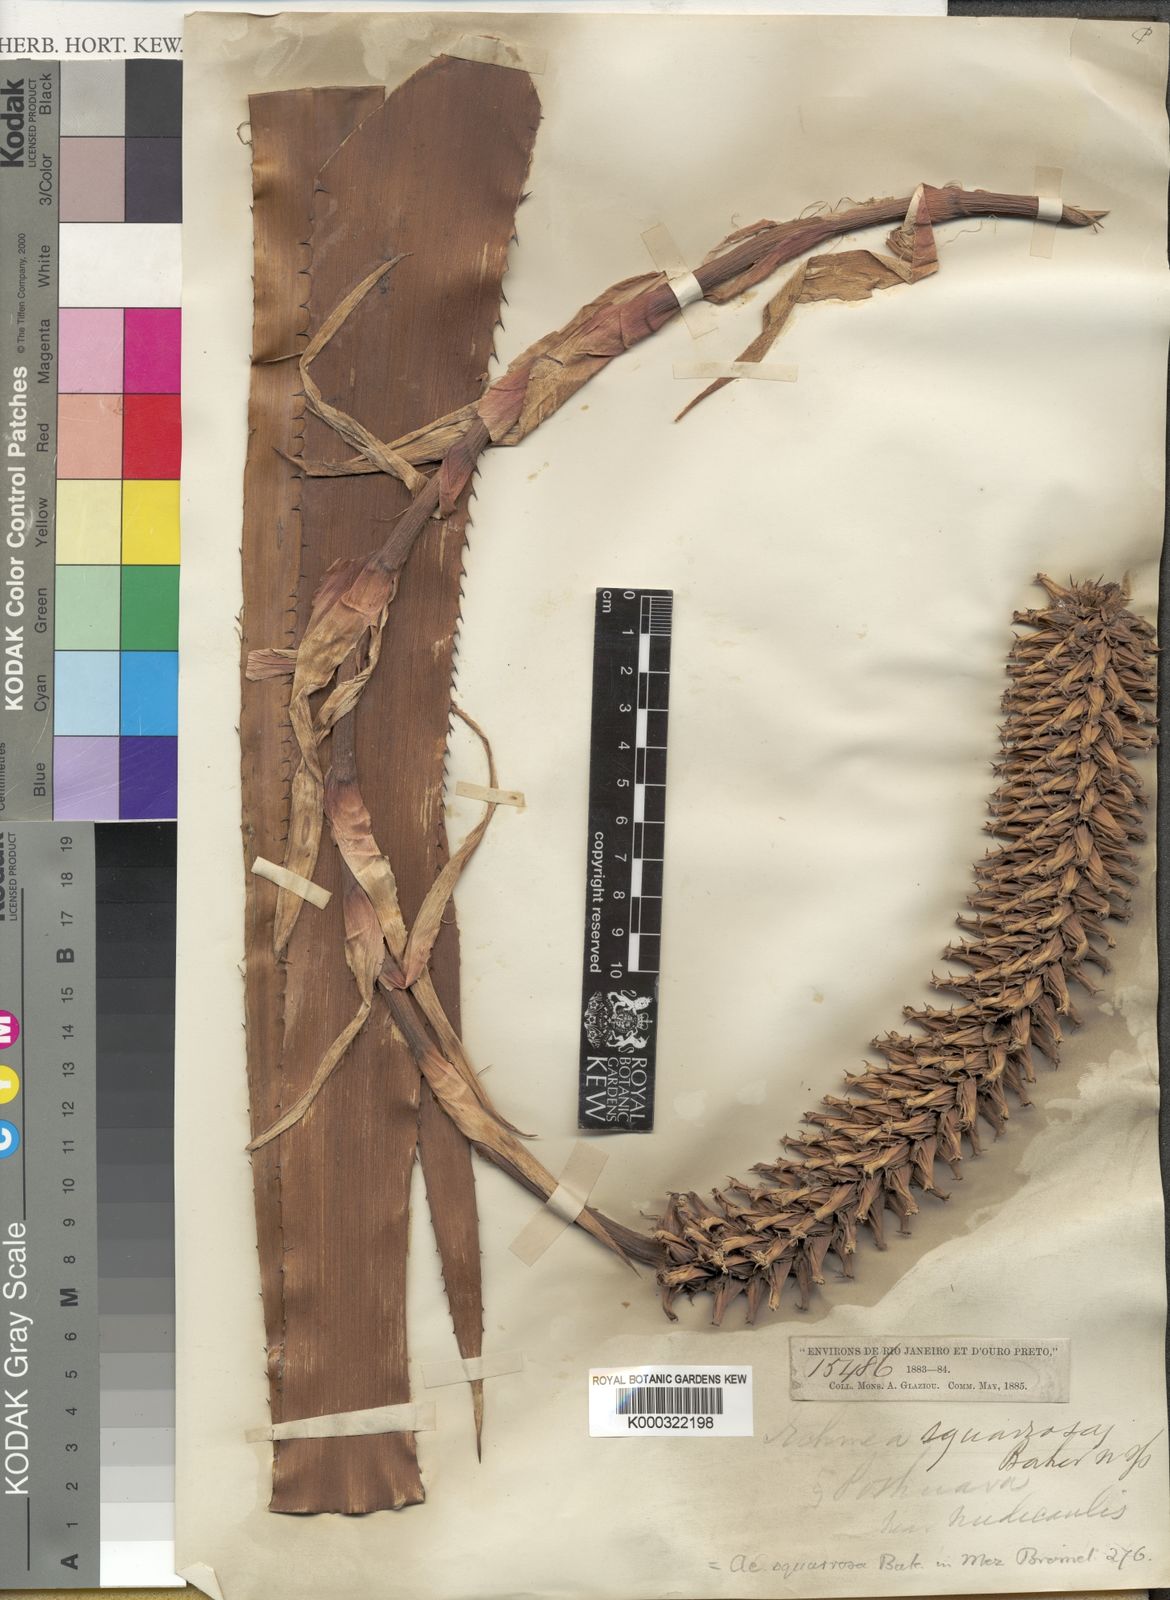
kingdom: Plantae
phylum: Tracheophyta
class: Liliopsida
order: Poales
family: Bromeliaceae
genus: Aechmea
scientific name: Aechmea squarrosa
